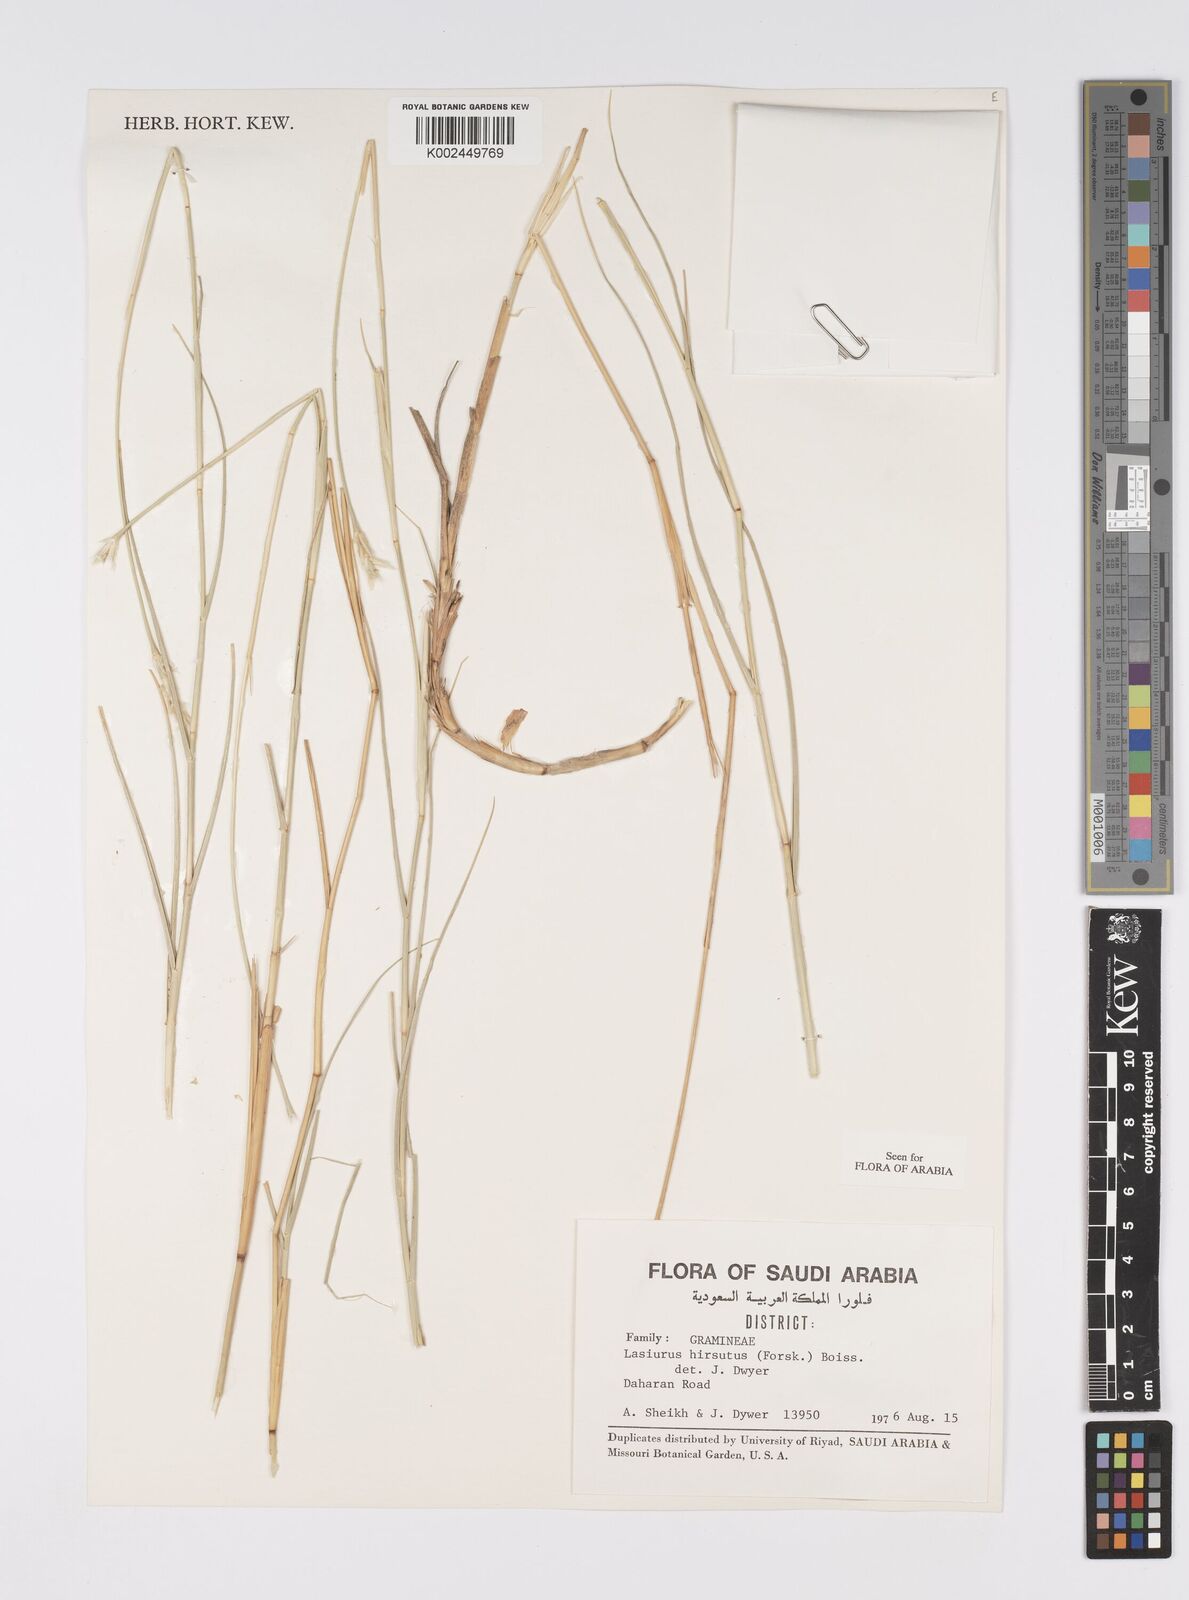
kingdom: Plantae
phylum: Tracheophyta
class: Liliopsida
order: Poales
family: Poaceae
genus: Lasiurus
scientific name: Lasiurus scindicus
